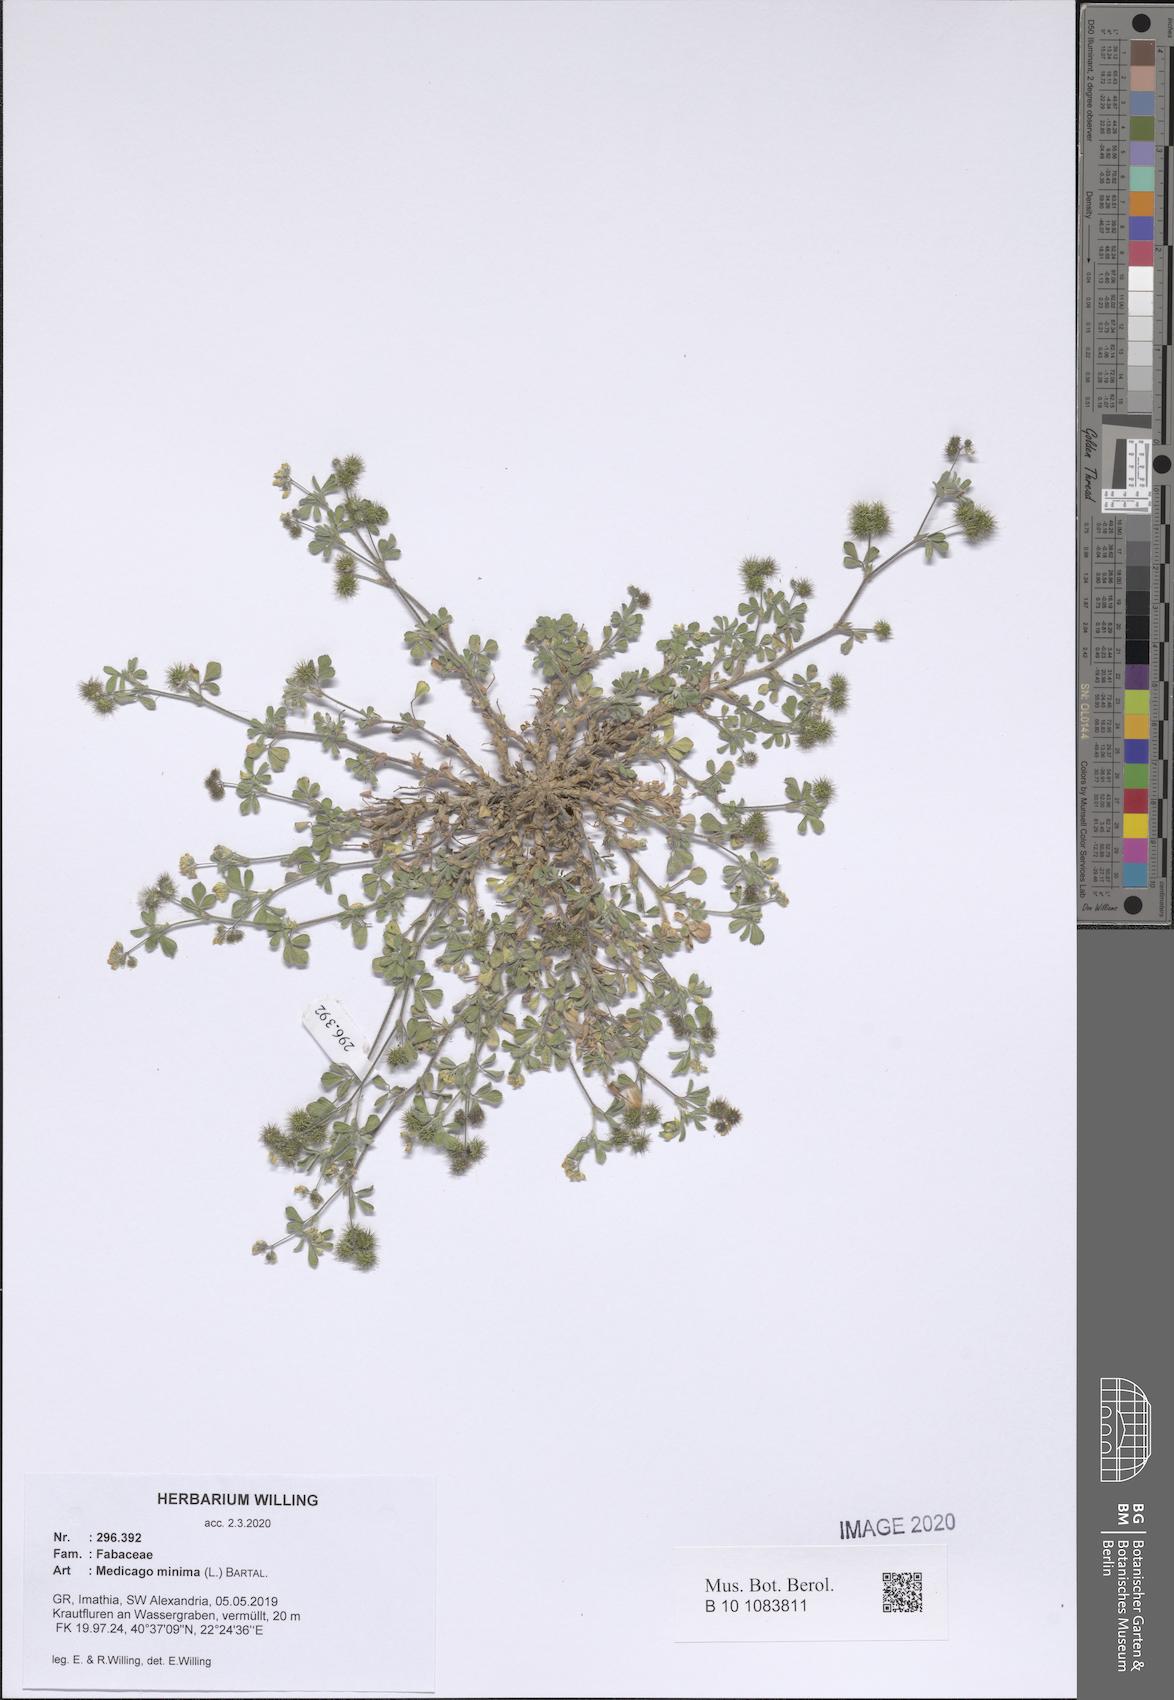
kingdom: Plantae
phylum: Tracheophyta
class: Magnoliopsida
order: Fabales
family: Fabaceae
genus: Medicago
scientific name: Medicago minima
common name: Little bur-clover
